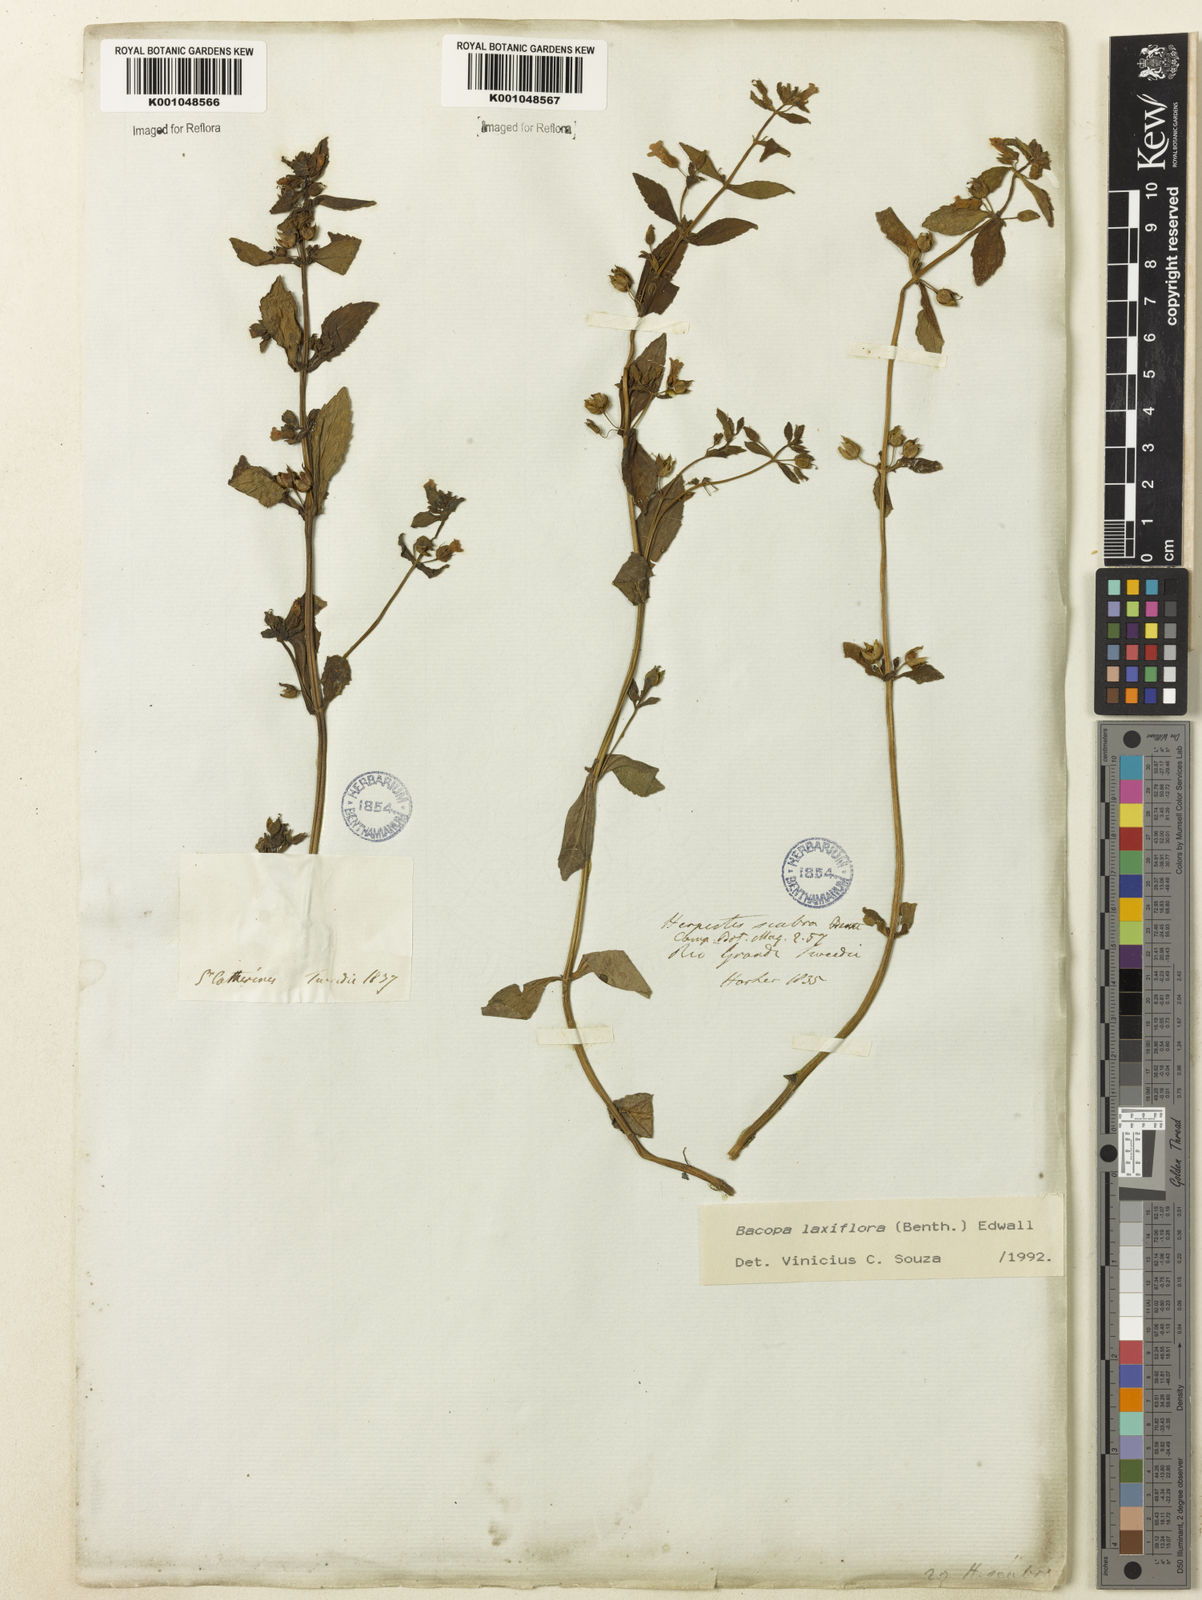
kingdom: Plantae
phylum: Tracheophyta
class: Magnoliopsida
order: Lamiales
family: Plantaginaceae
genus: Bacopa
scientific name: Bacopa laxiflora
